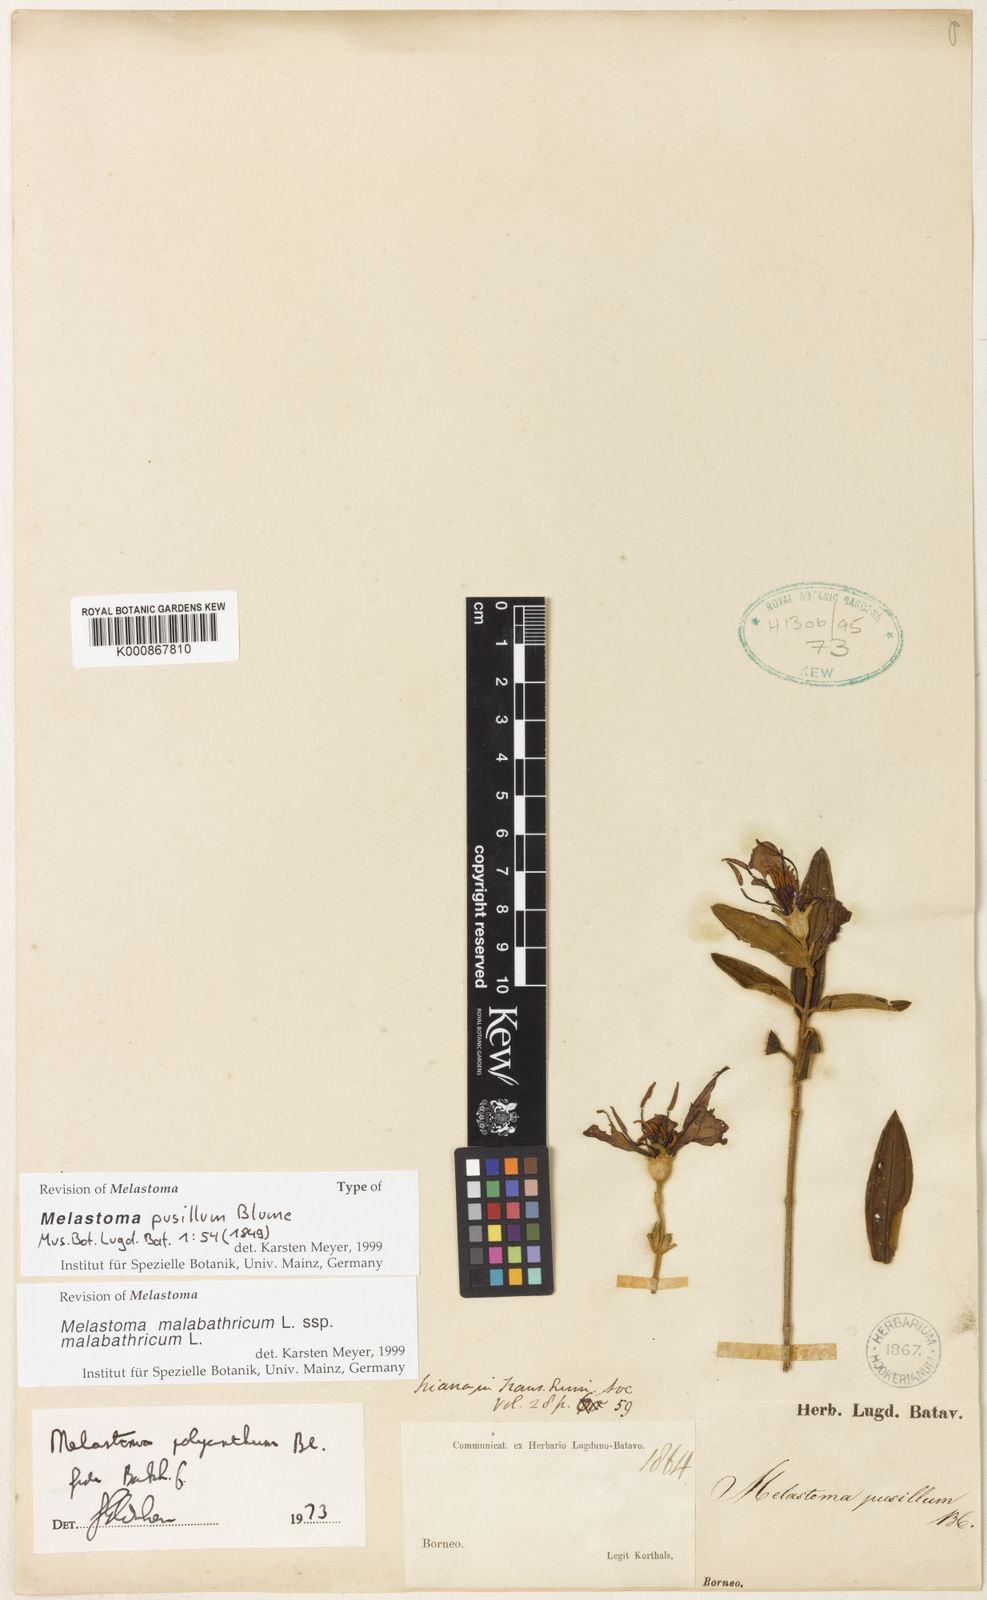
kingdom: Plantae
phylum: Tracheophyta
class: Magnoliopsida
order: Myrtales
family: Melastomataceae
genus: Melastoma
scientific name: Melastoma malabathricum
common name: Indian-rhododendron
